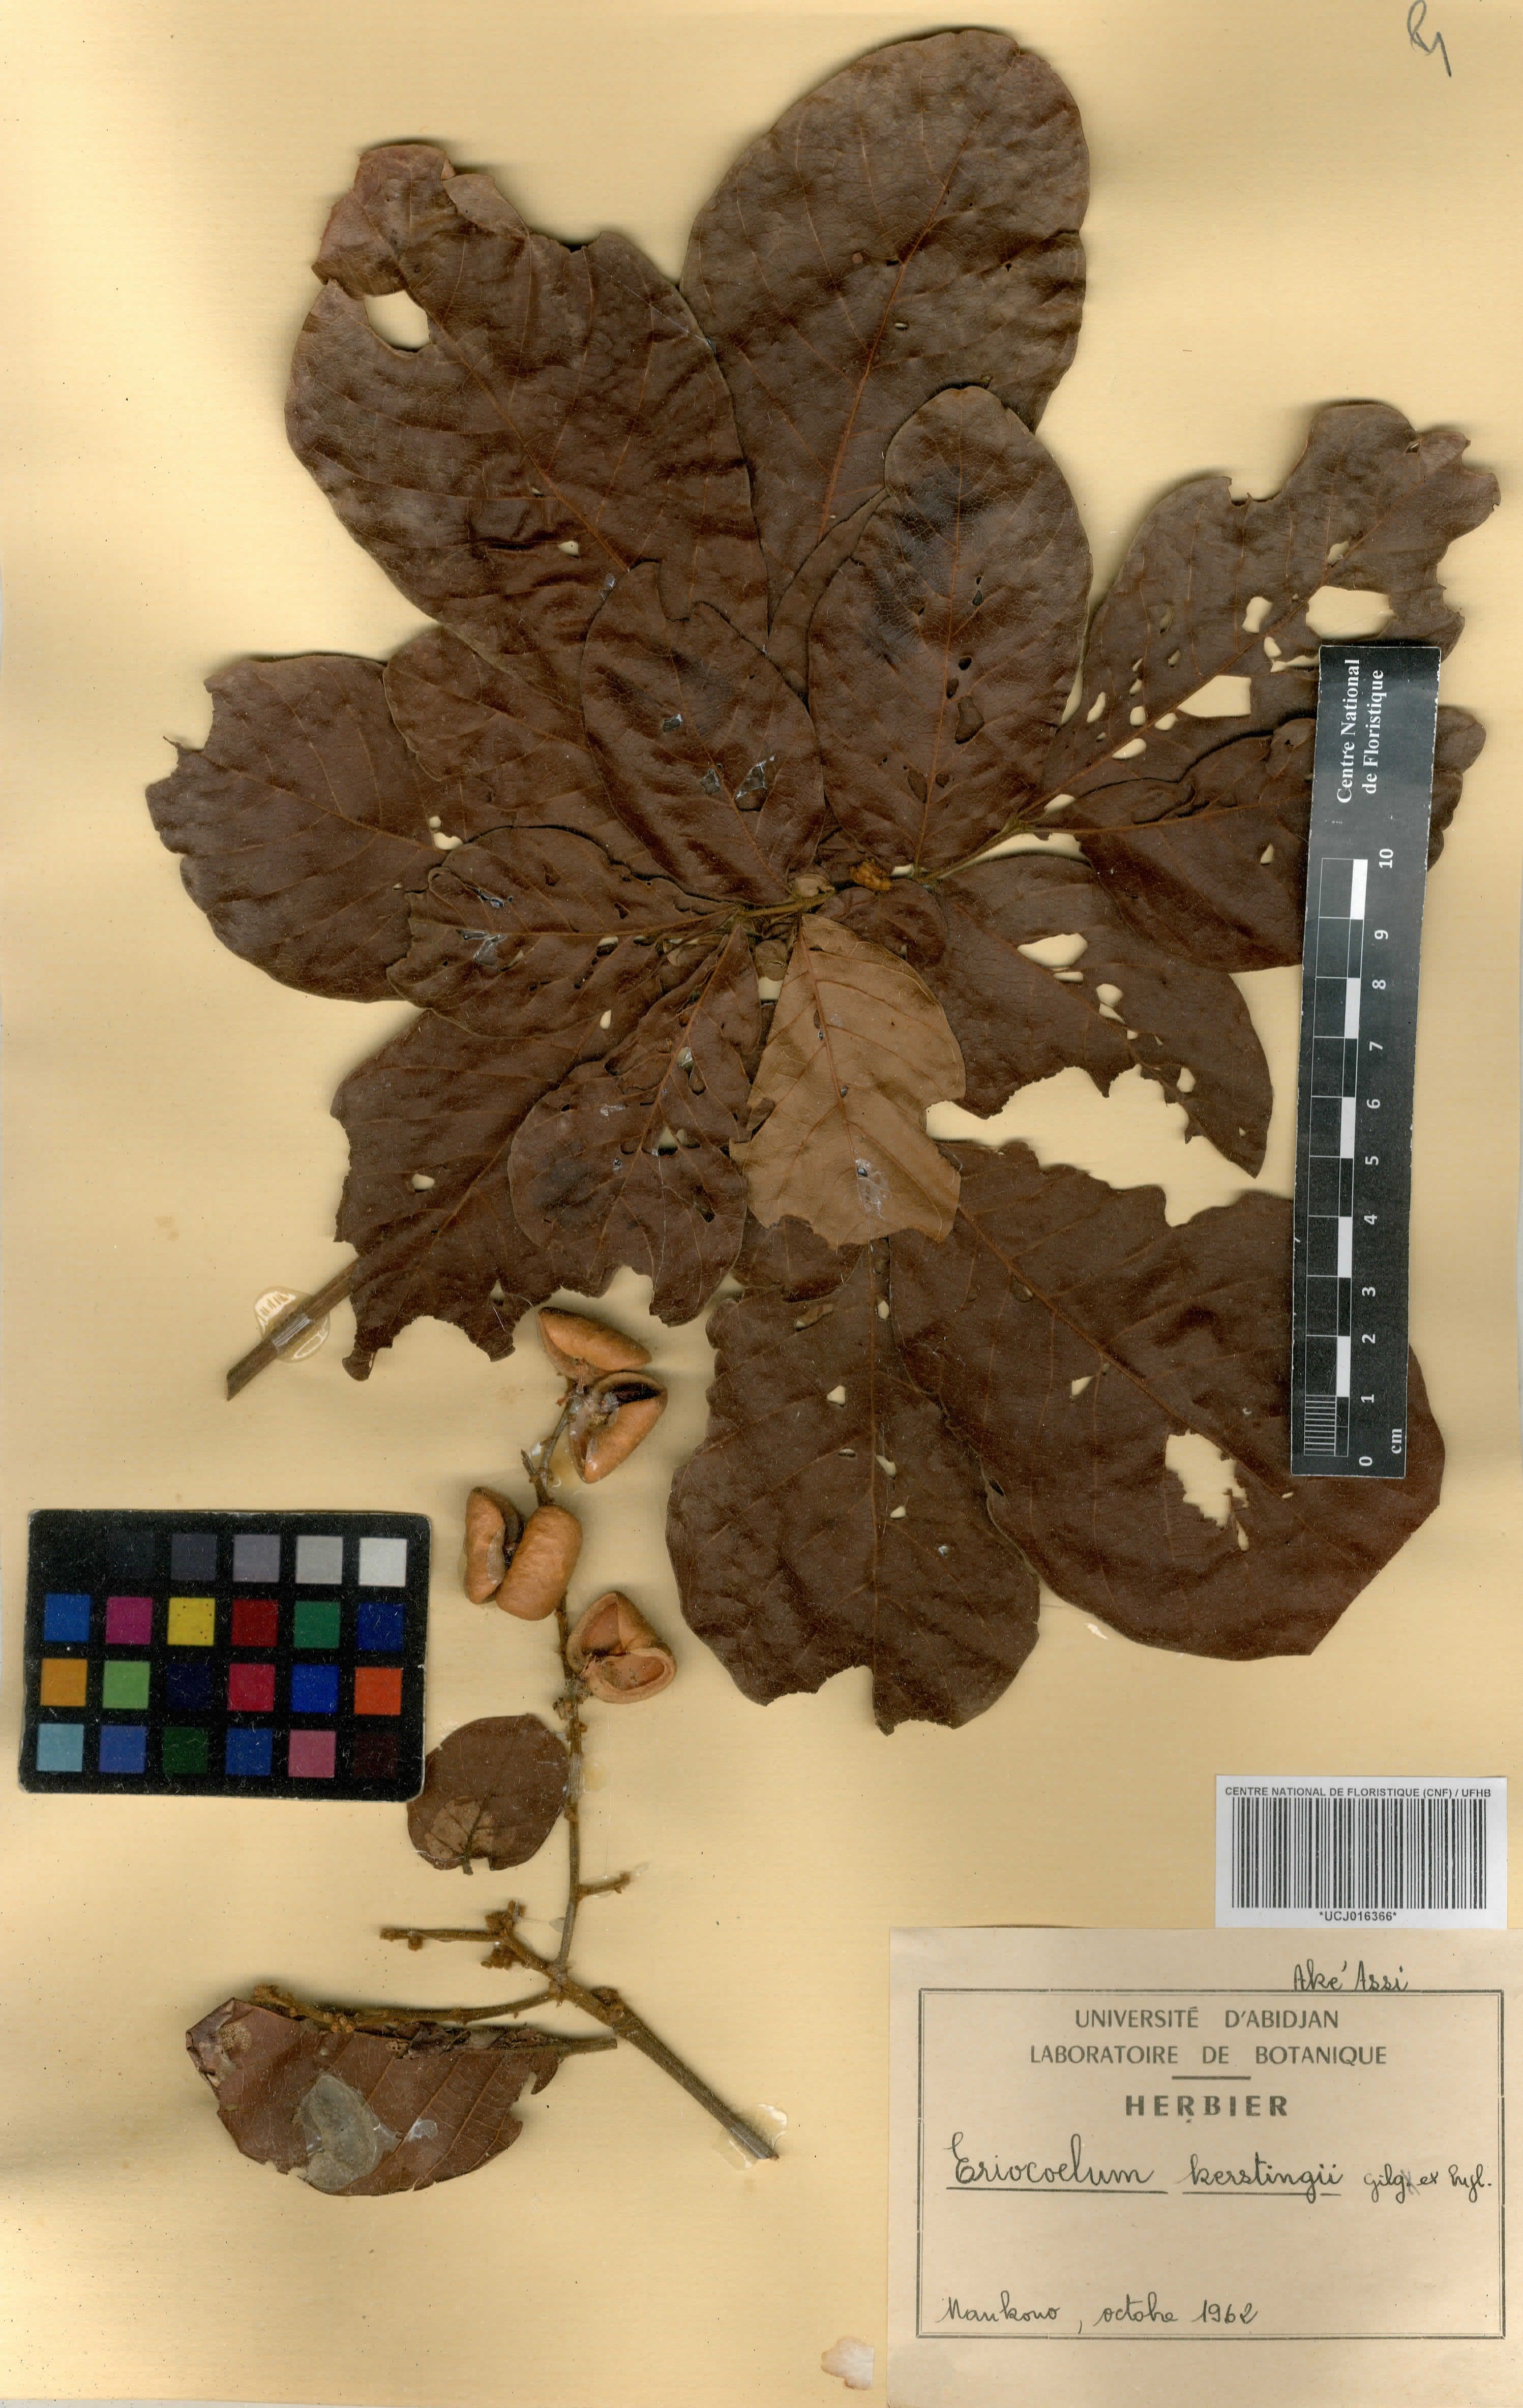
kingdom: Plantae
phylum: Tracheophyta
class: Magnoliopsida
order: Sapindales
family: Sapindaceae
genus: Eriocoelum
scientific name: Eriocoelum kerstingii
